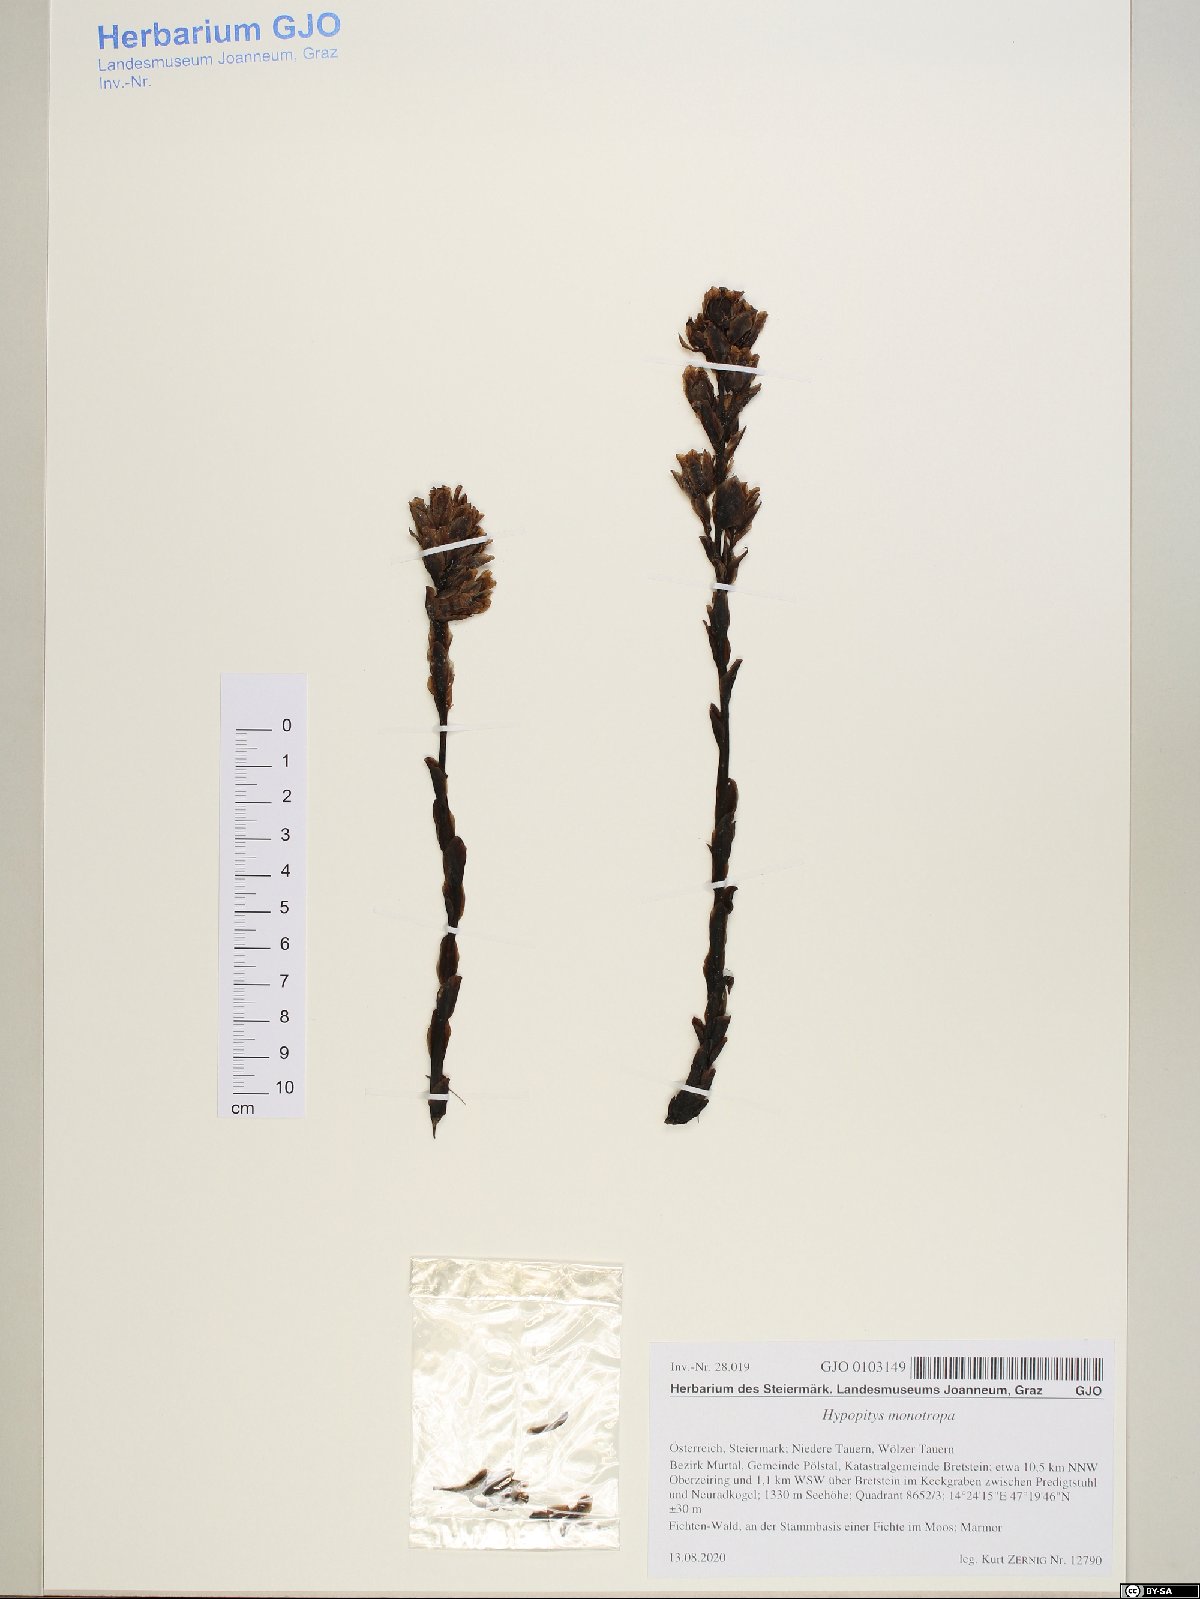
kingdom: Plantae
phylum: Tracheophyta
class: Magnoliopsida
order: Ericales
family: Ericaceae
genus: Hypopitys
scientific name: Hypopitys monotropa
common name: Yellow bird's-nest
